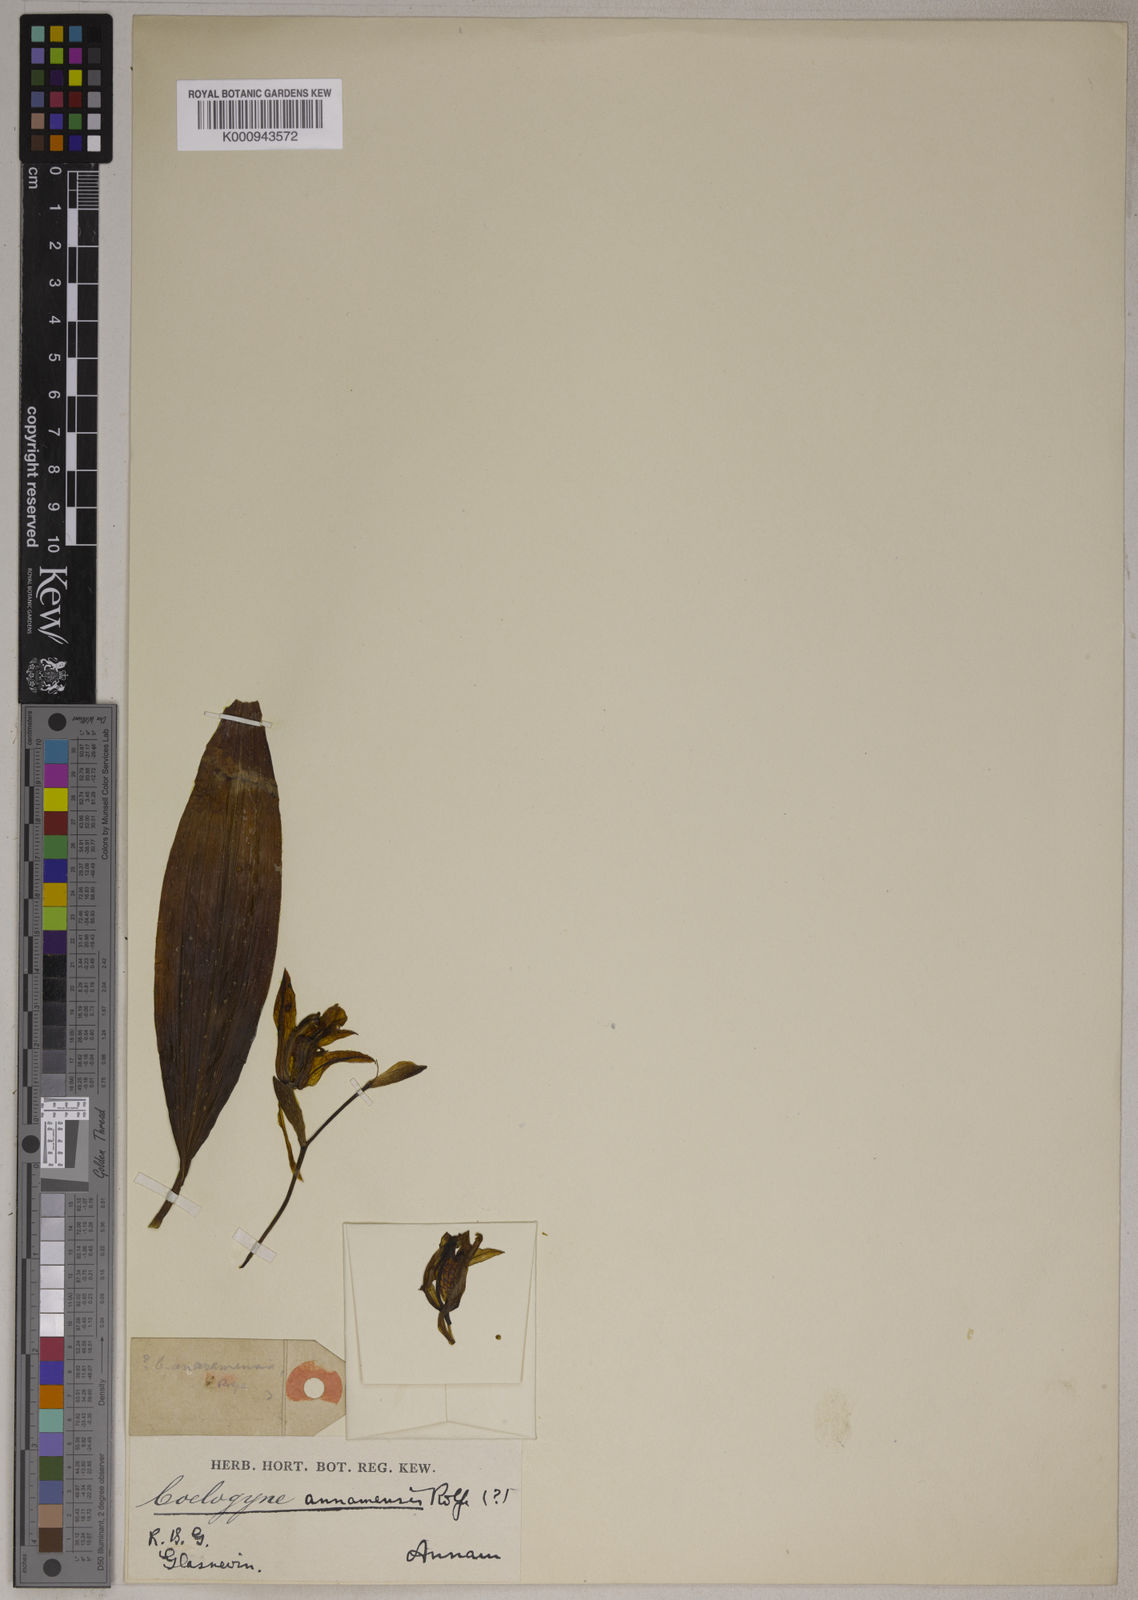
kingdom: Plantae
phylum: Tracheophyta
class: Liliopsida
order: Asparagales
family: Orchidaceae
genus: Coelogyne
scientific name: Coelogyne assamica
